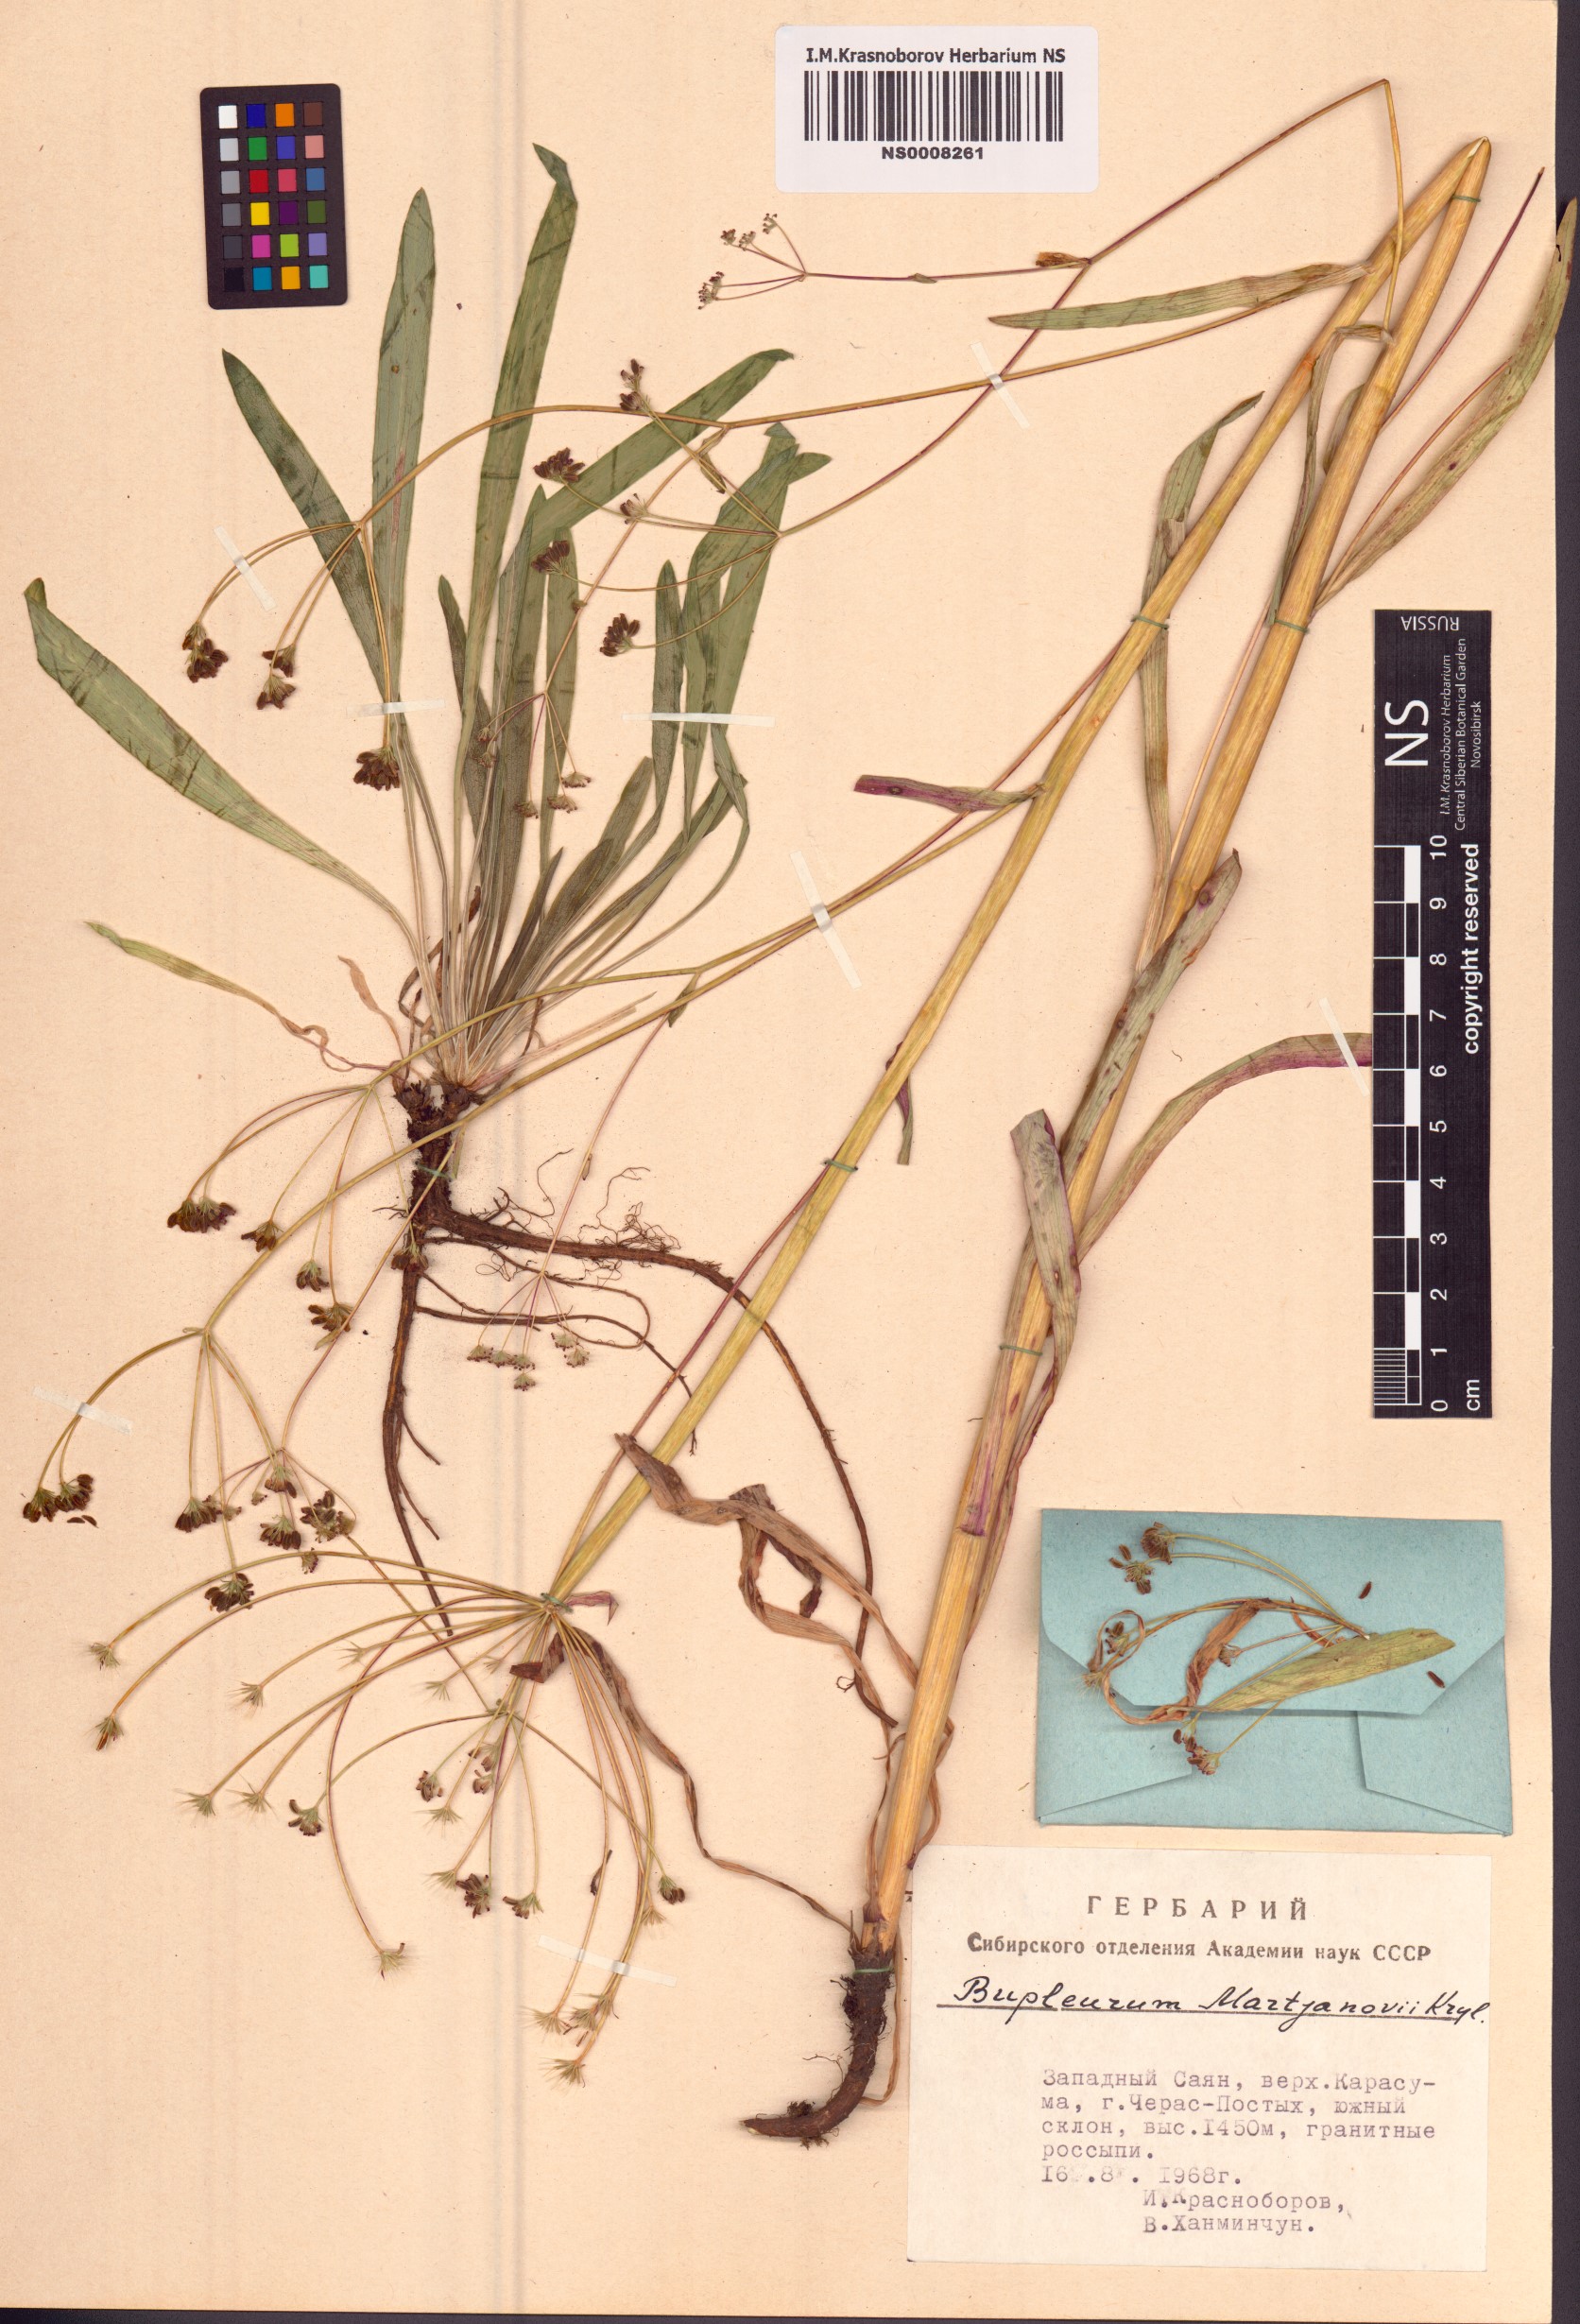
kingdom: Plantae
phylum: Tracheophyta
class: Magnoliopsida
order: Apiales
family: Apiaceae
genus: Bupleurum
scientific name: Bupleurum martjanovii
